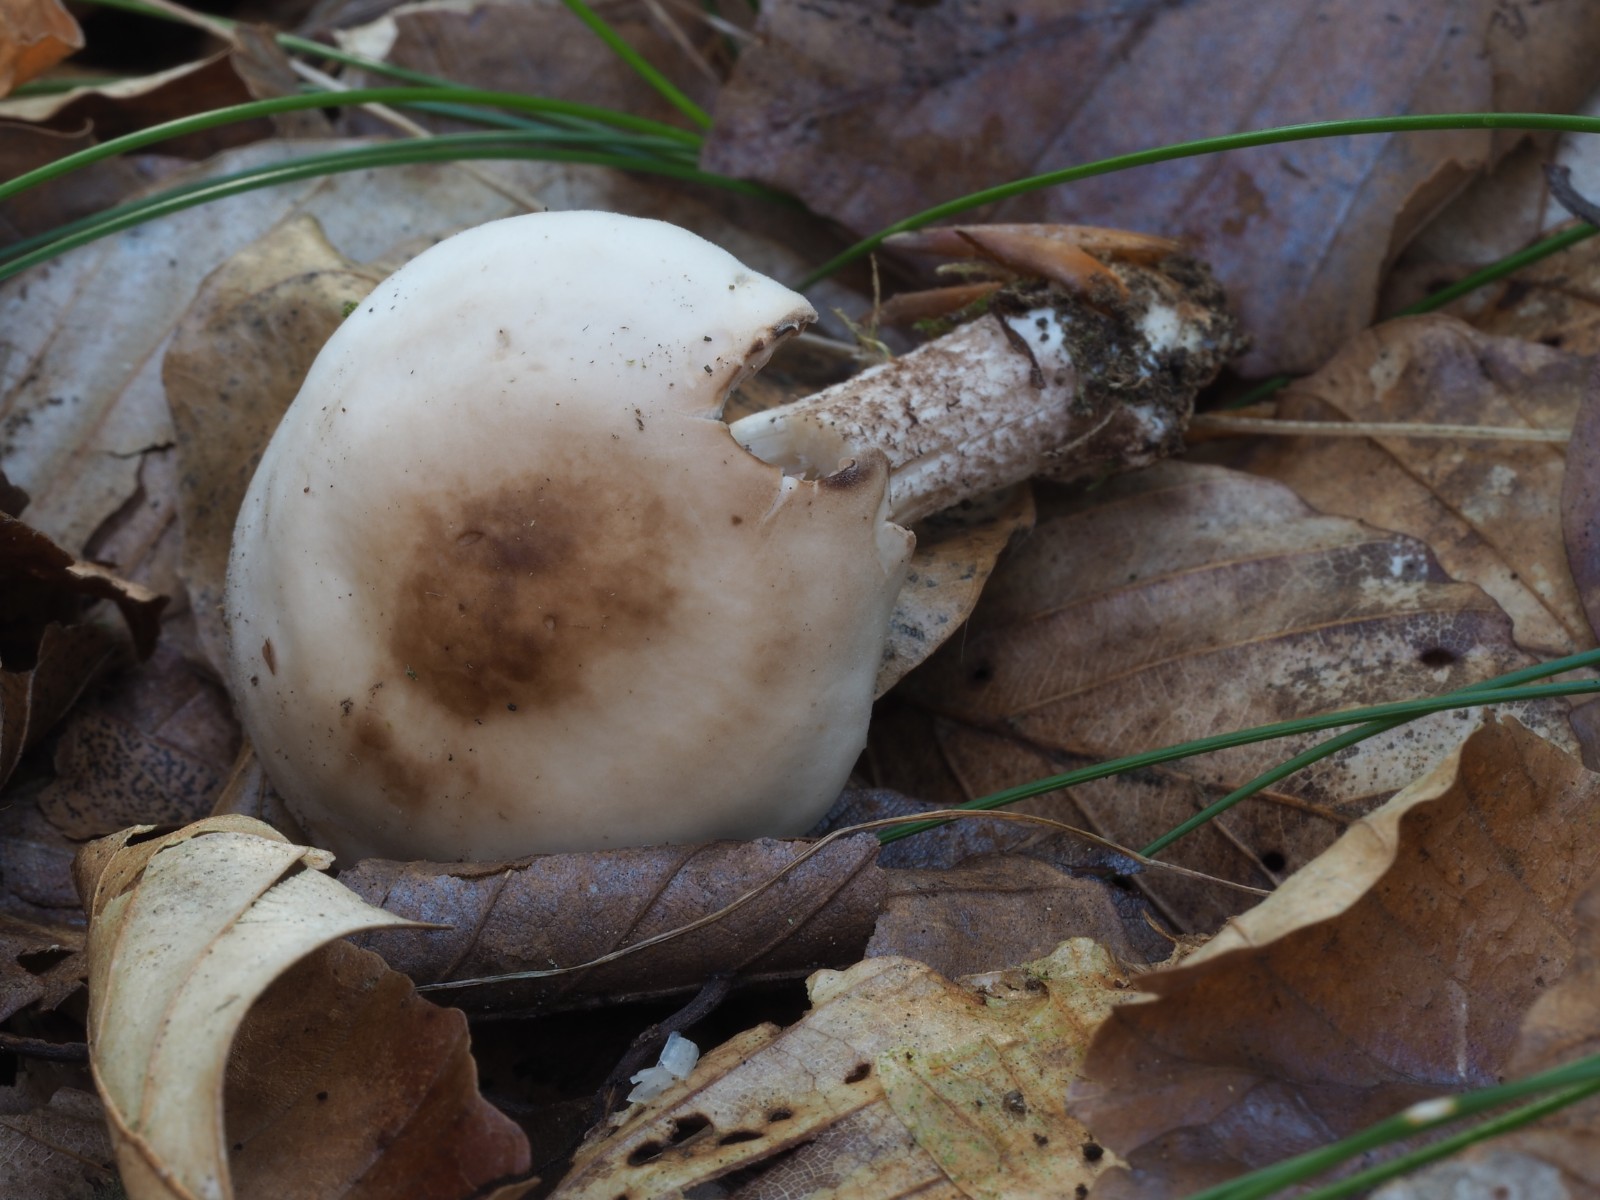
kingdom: Fungi
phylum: Basidiomycota
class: Agaricomycetes
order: Agaricales
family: Psathyrellaceae
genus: Homophron
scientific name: Homophron spadiceum
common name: daddelbrun mørkhat
